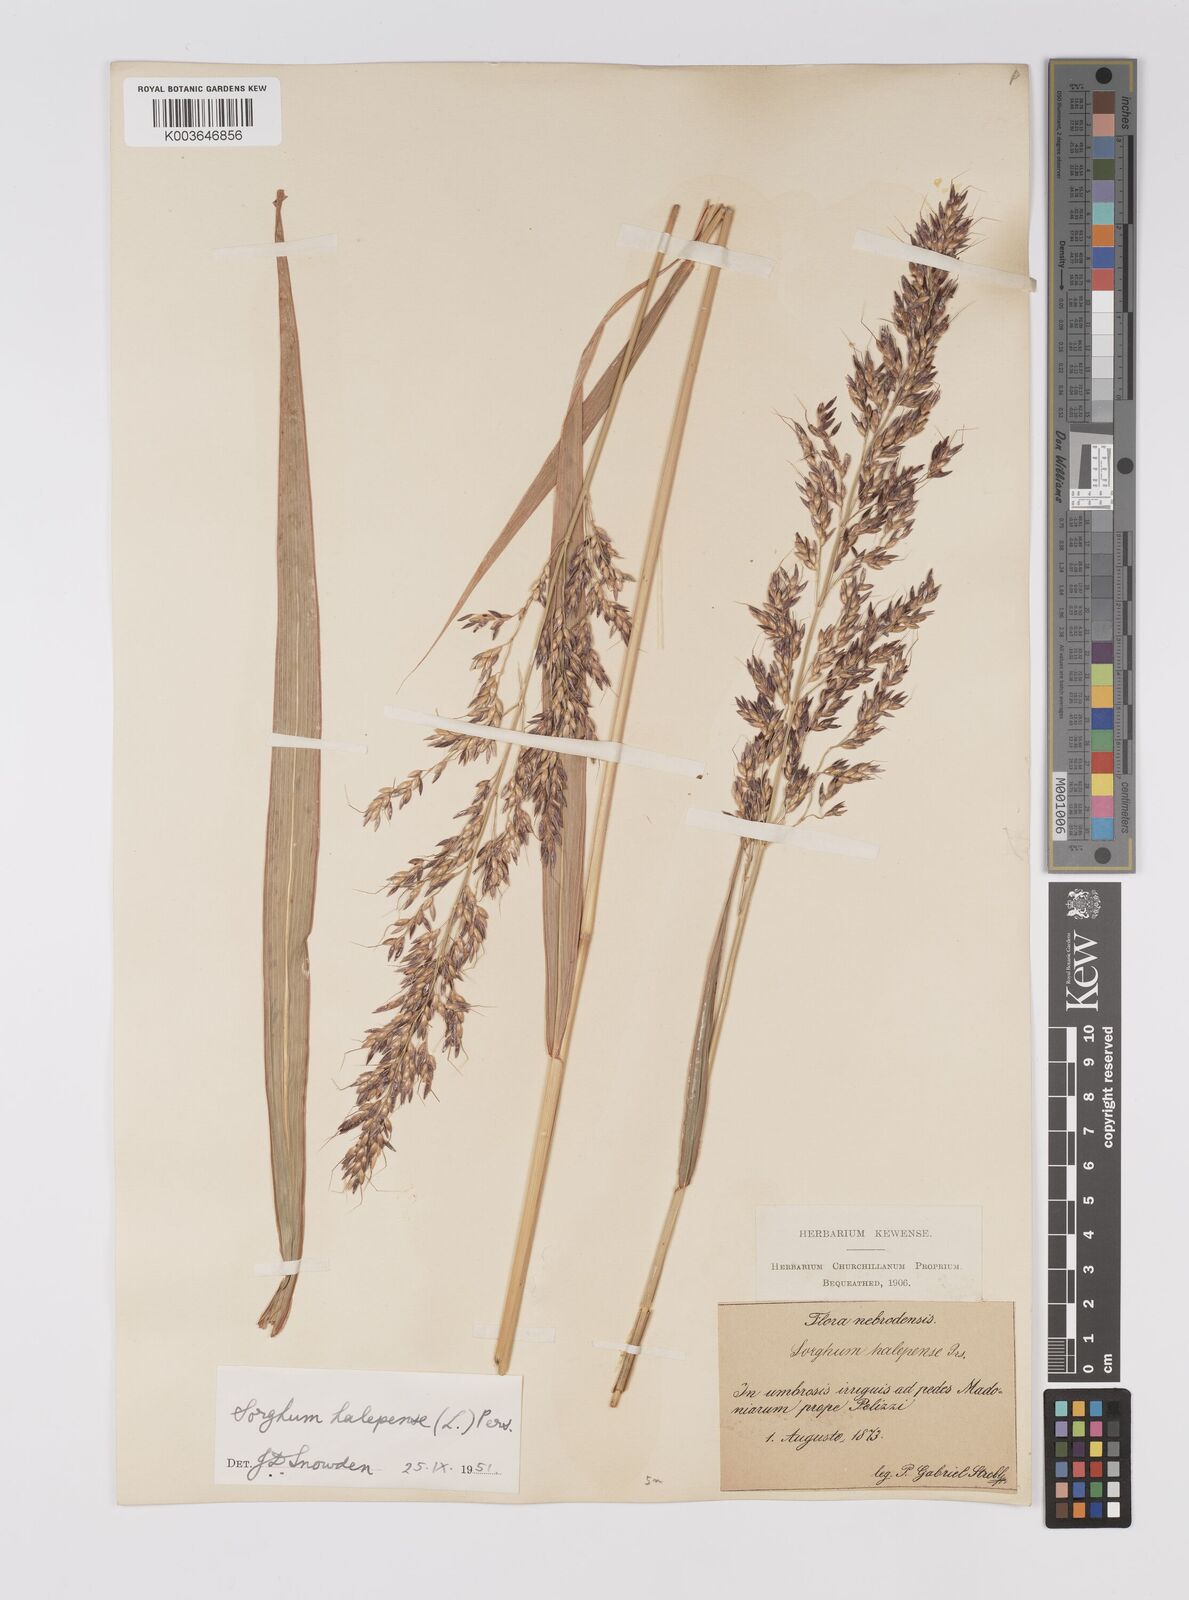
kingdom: Plantae
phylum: Tracheophyta
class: Liliopsida
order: Poales
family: Poaceae
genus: Sorghum
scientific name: Sorghum halepense
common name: Johnson-grass
